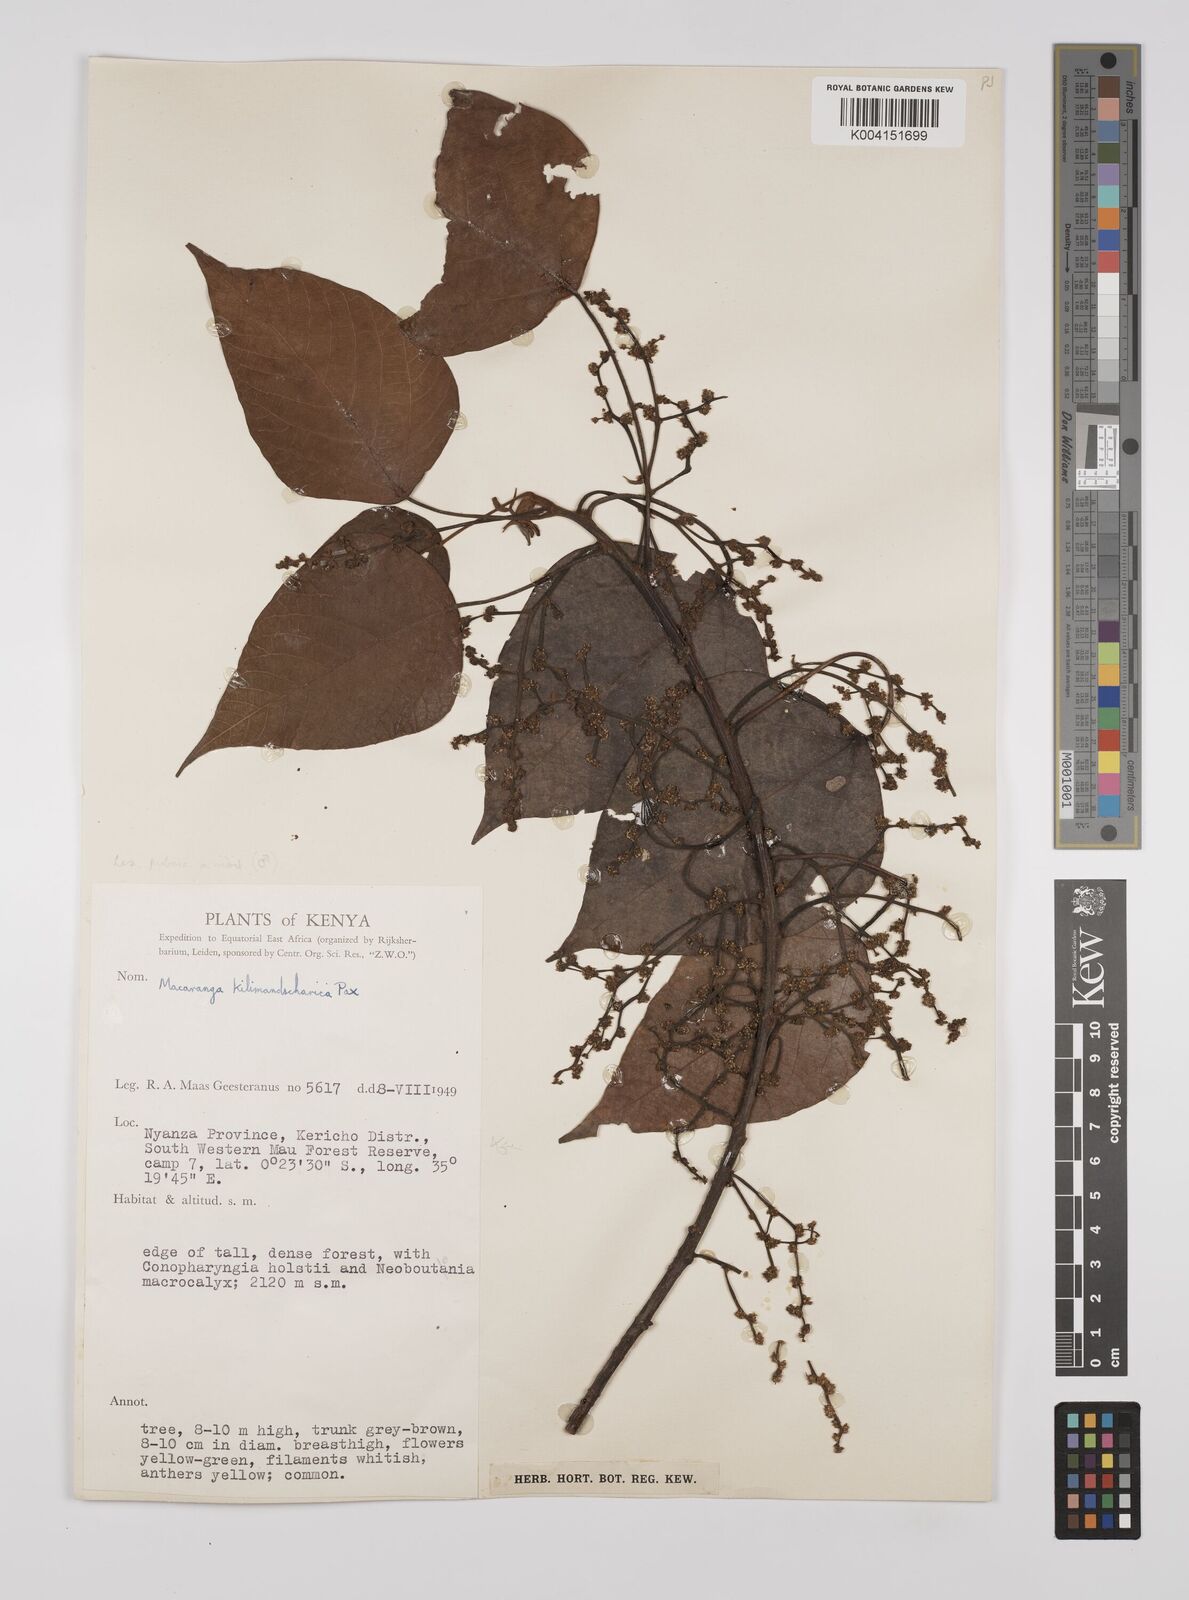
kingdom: Plantae
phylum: Tracheophyta
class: Magnoliopsida
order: Malpighiales
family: Euphorbiaceae
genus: Macaranga
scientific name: Macaranga kilimandscharica
